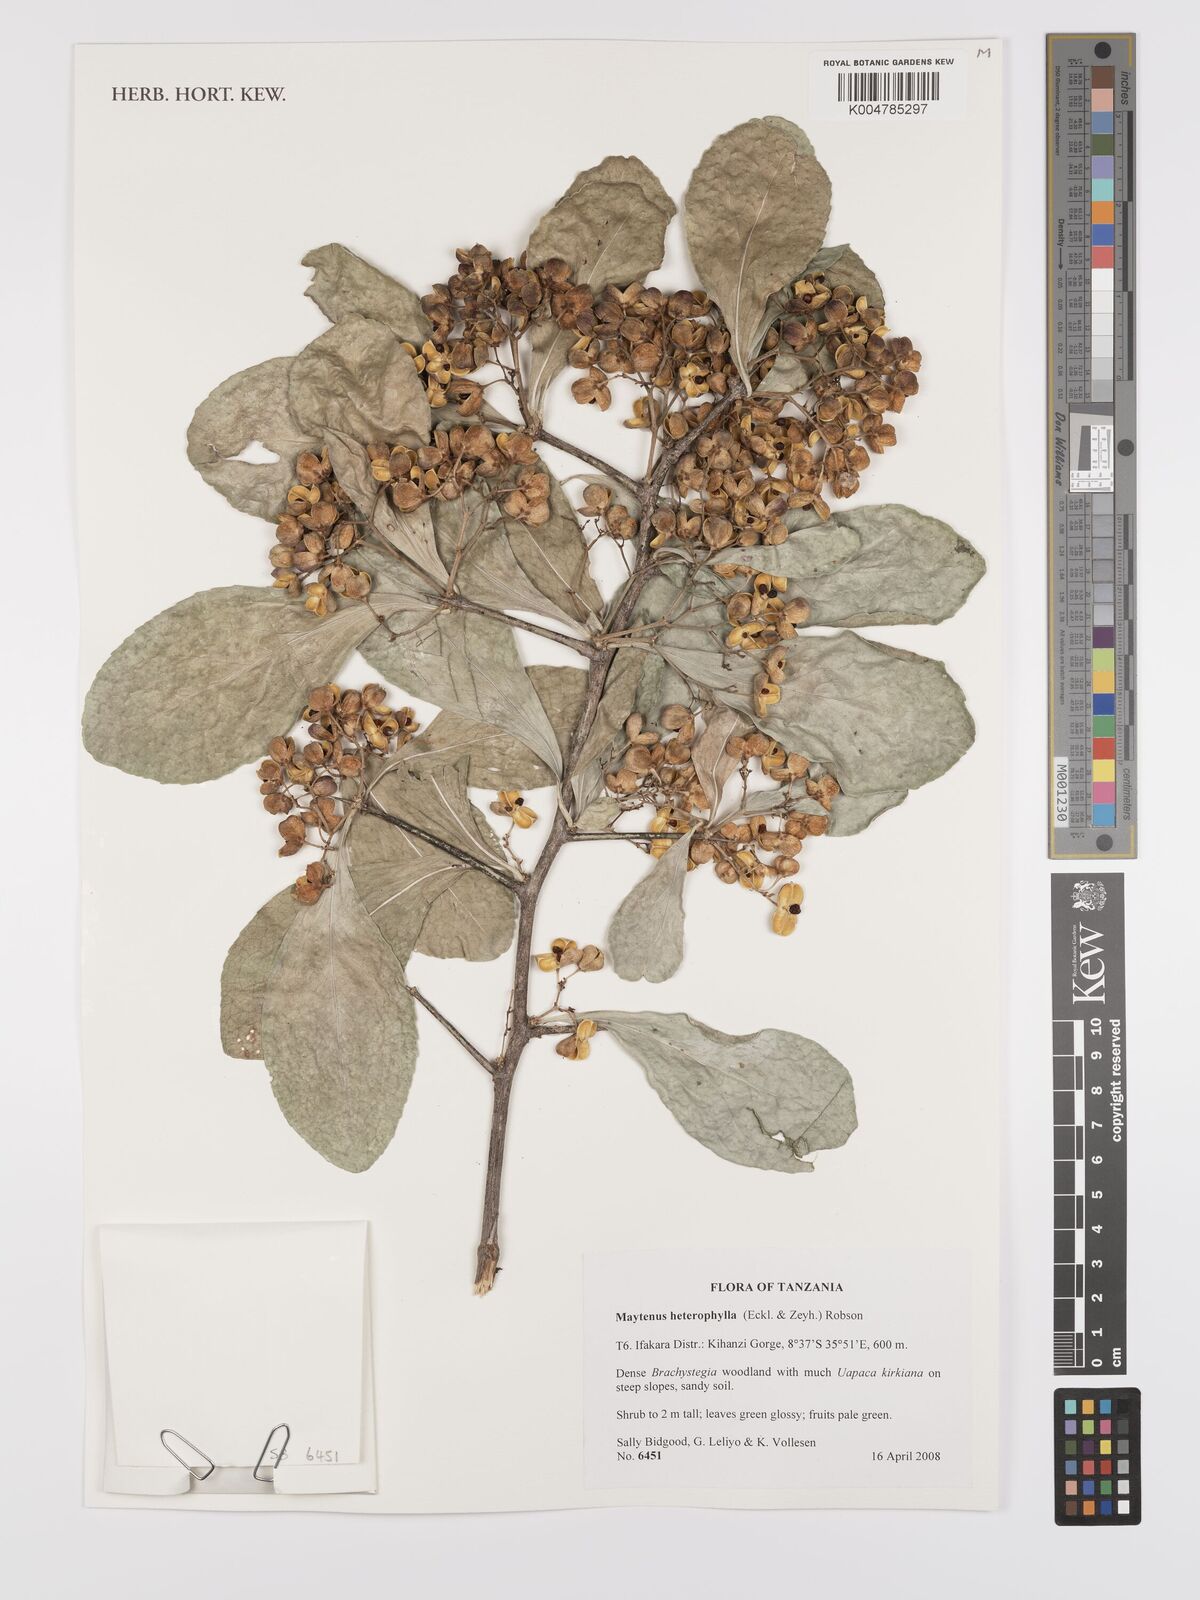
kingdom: Plantae
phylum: Tracheophyta
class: Magnoliopsida
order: Celastrales
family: Celastraceae
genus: Gymnosporia
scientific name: Gymnosporia nguruensis
